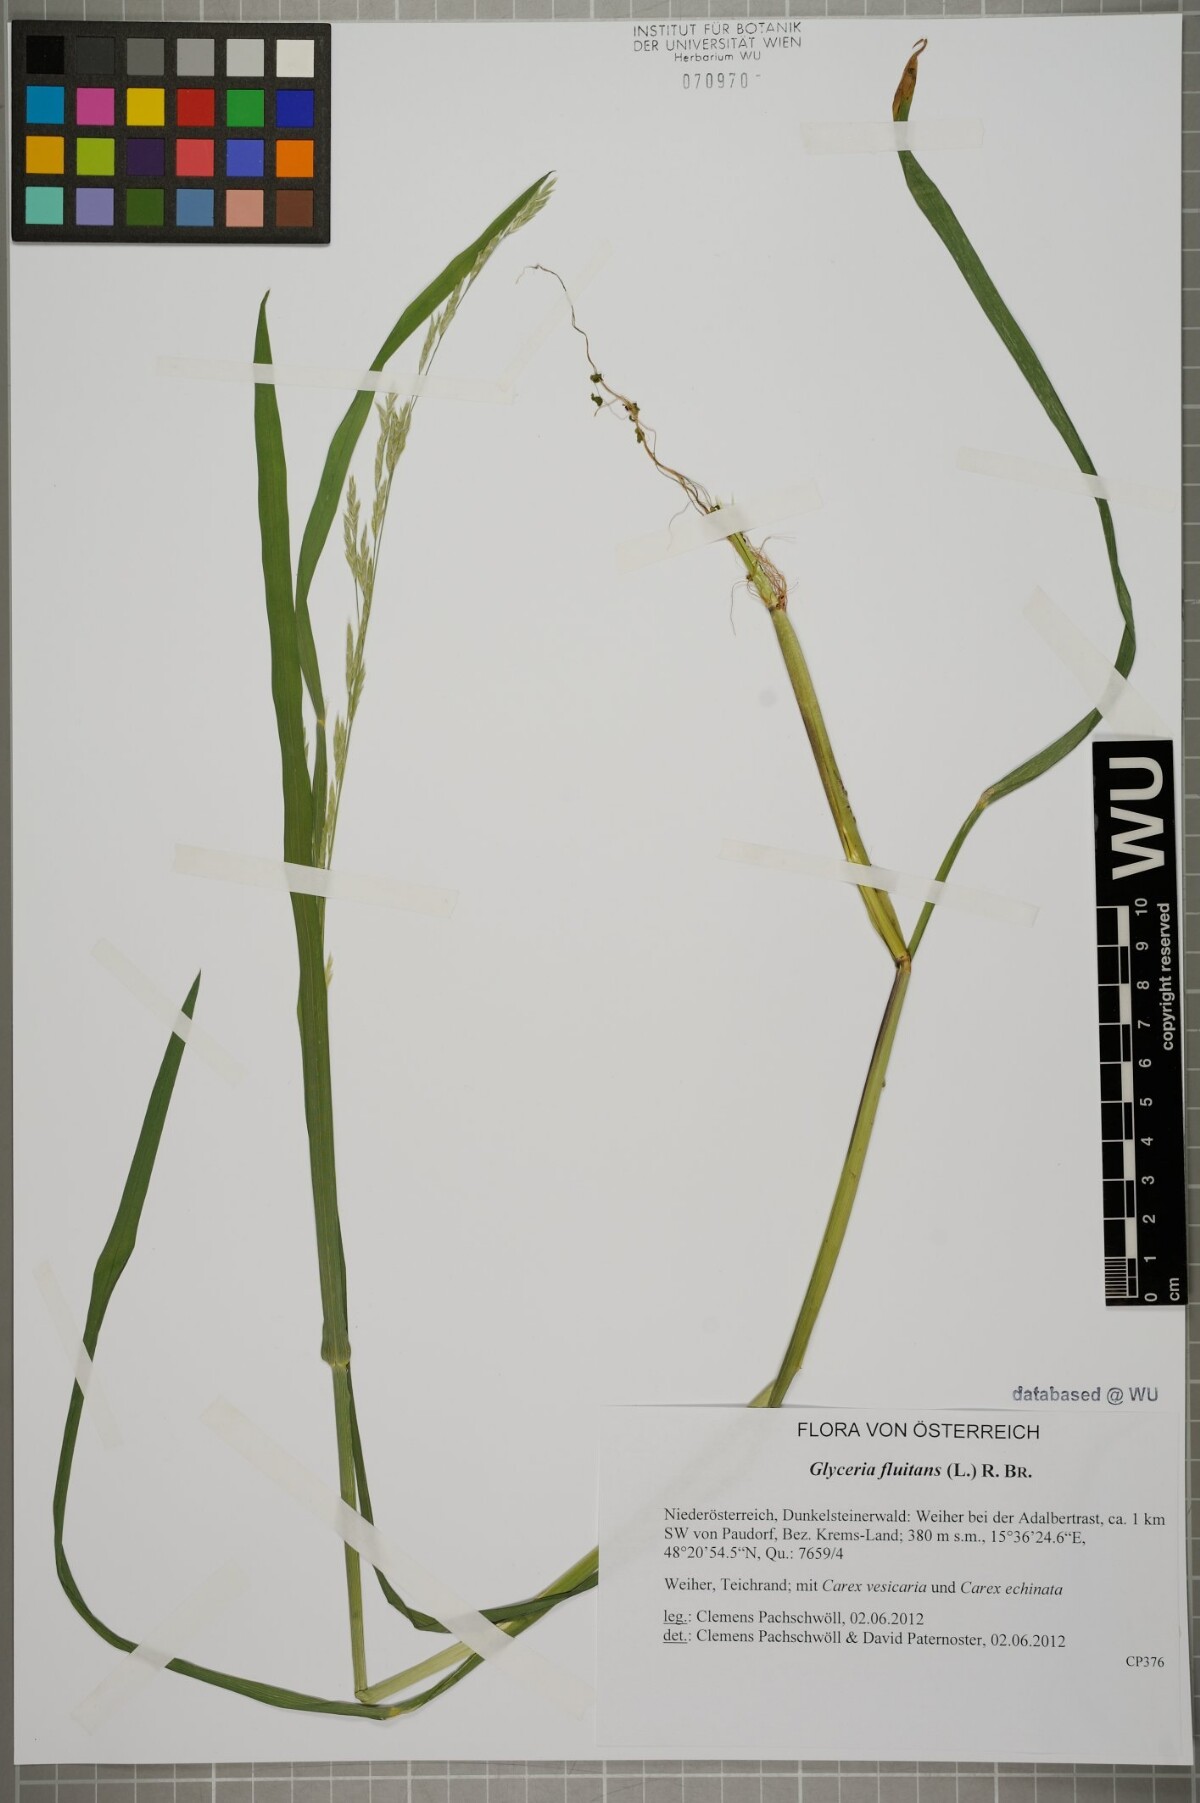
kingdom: Plantae
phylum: Tracheophyta
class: Liliopsida
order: Poales
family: Poaceae
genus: Glyceria
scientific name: Glyceria fluitans
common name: Floating sweet-grass
